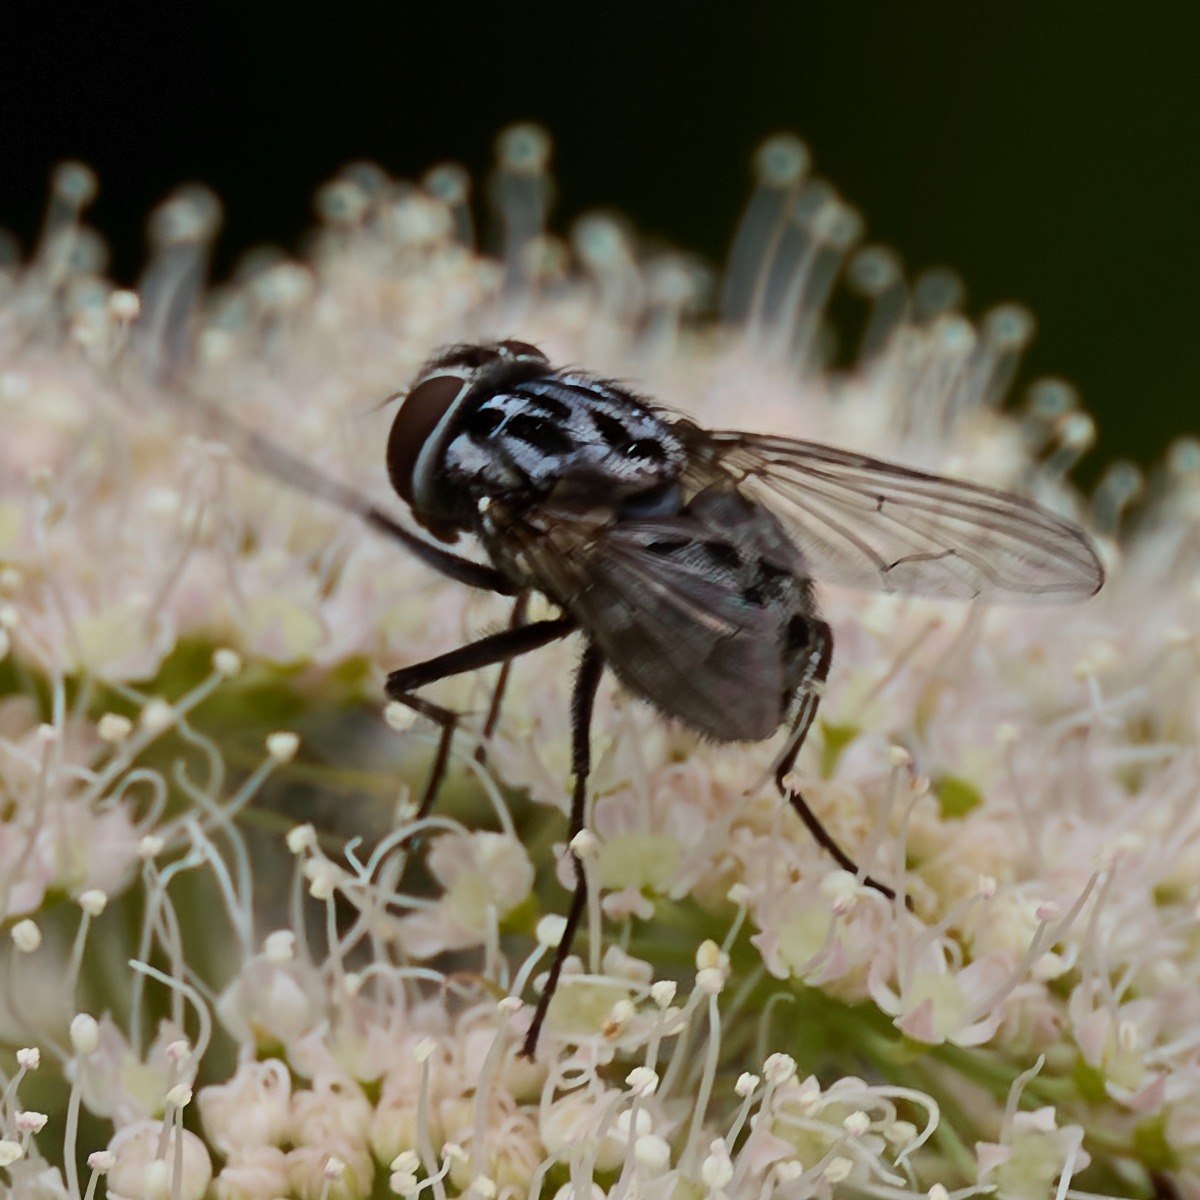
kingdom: Animalia
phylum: Arthropoda
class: Insecta
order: Diptera
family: Muscidae
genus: Graphomya
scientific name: Graphomya maculata
